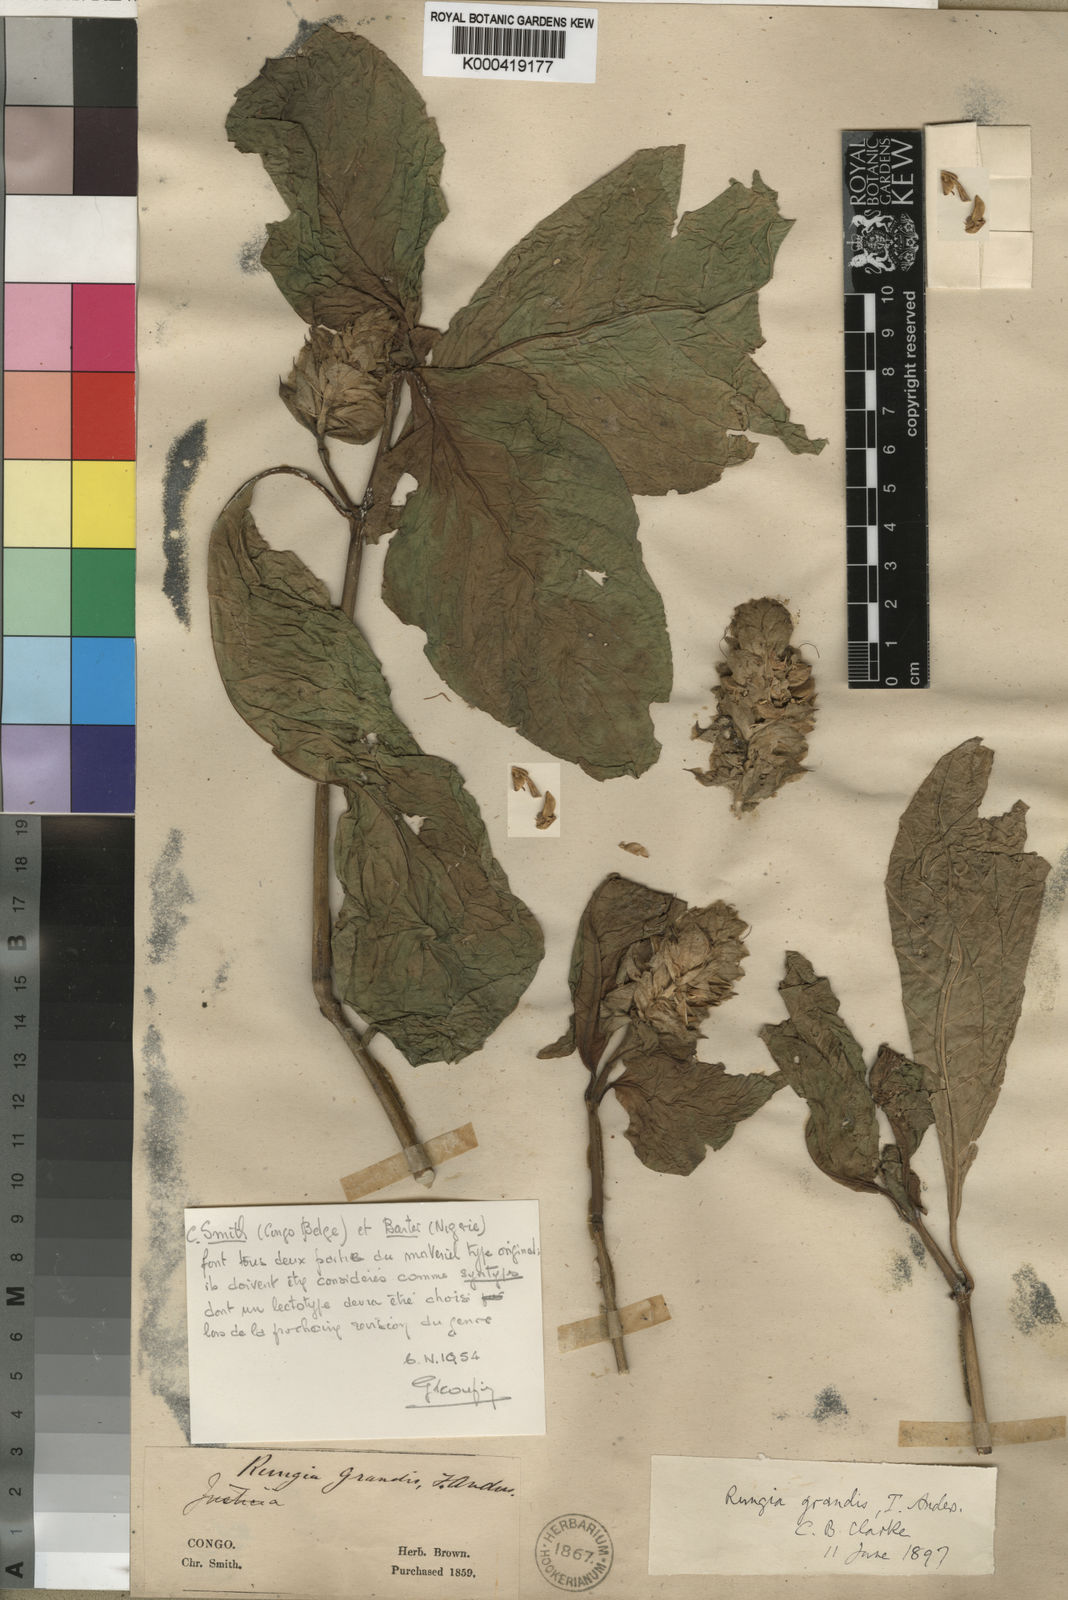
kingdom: Plantae
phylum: Tracheophyta
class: Magnoliopsida
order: Lamiales
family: Acanthaceae
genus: Justicia
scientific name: Justicia
